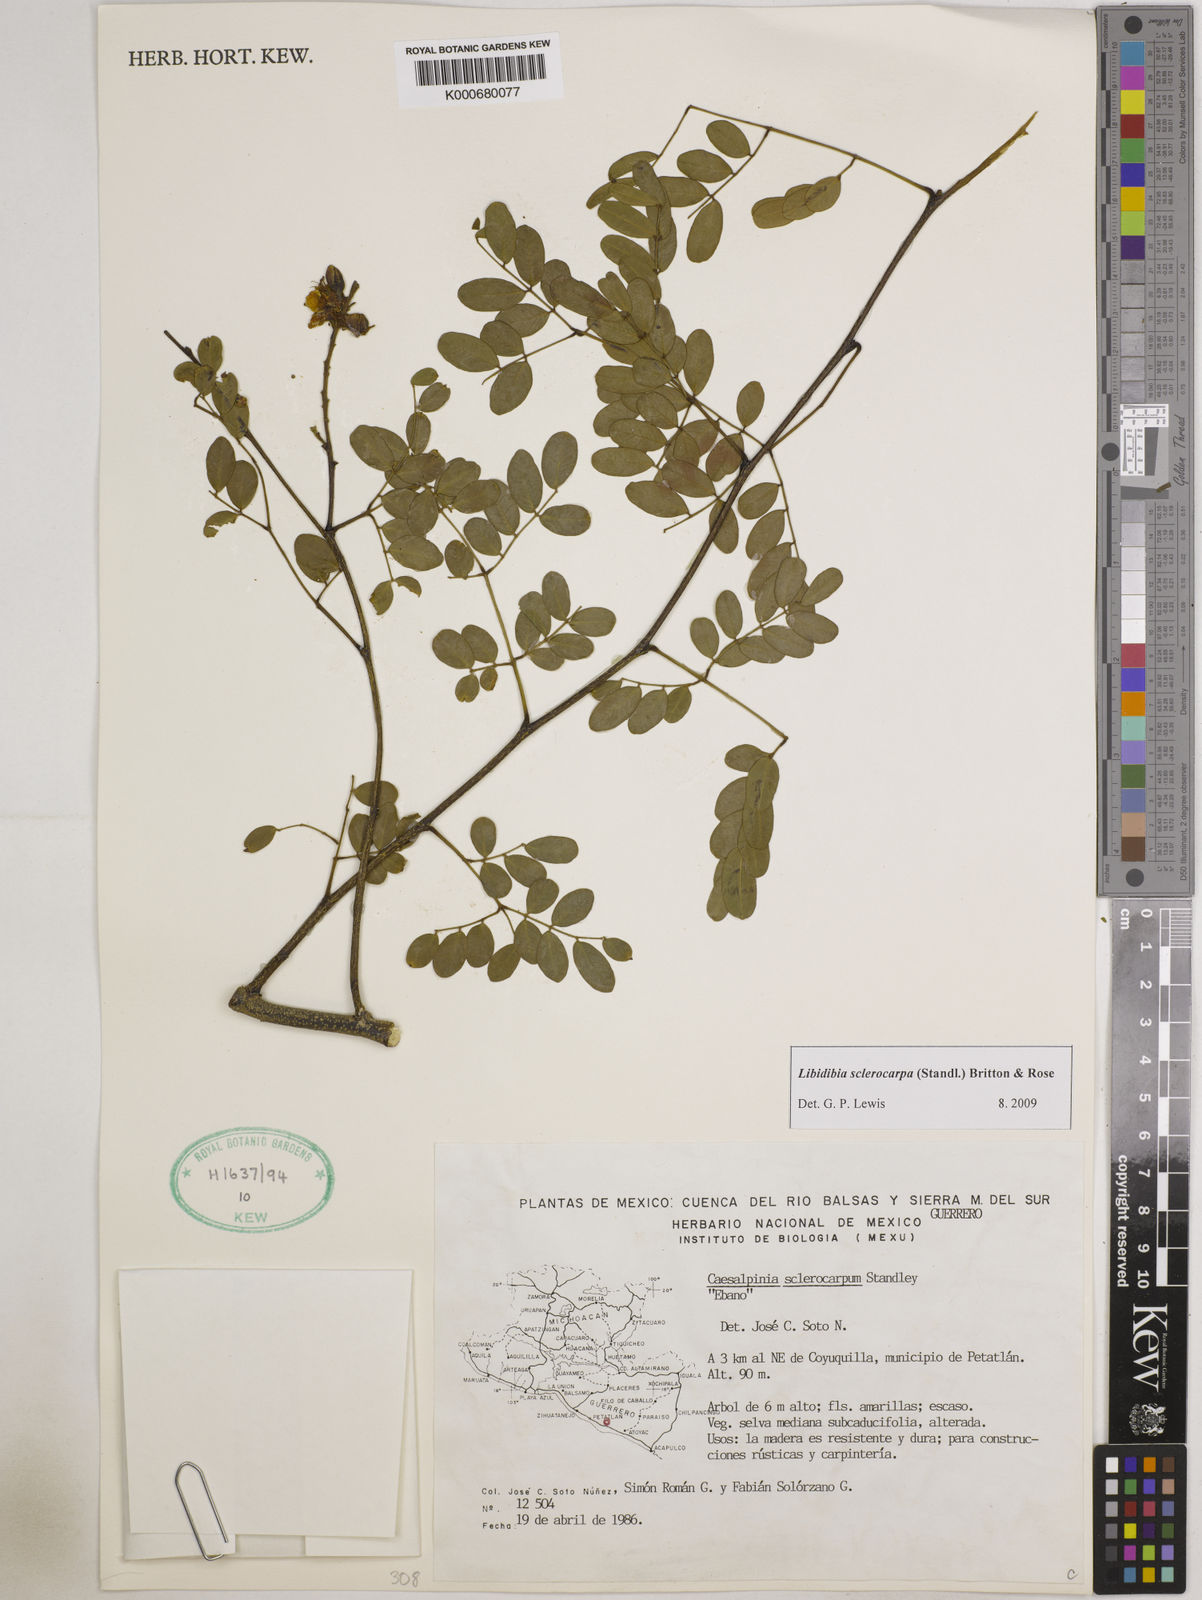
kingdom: Plantae
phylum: Tracheophyta
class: Magnoliopsida
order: Fabales
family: Fabaceae
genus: Libidibia
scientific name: Libidibia sclerocarpa
